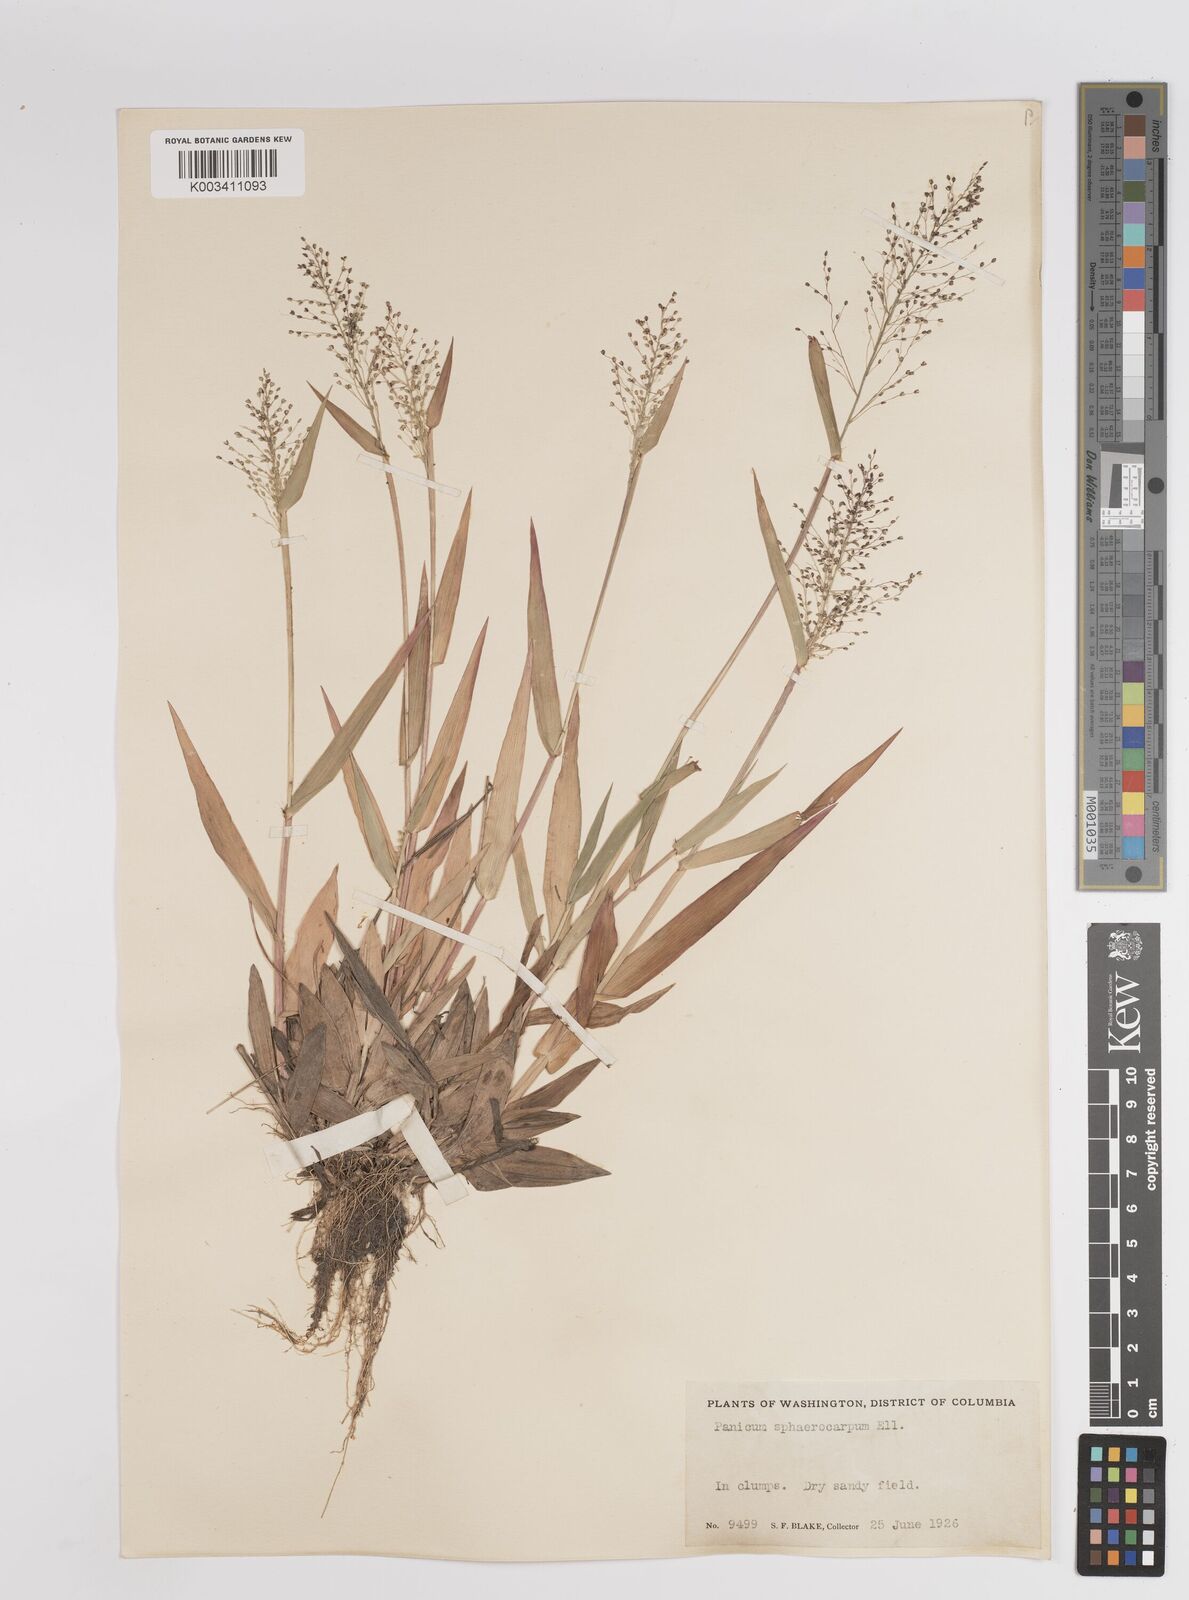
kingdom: Plantae
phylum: Tracheophyta
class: Liliopsida
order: Poales
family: Poaceae
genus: Dichanthelium
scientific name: Dichanthelium sphaerocarpon
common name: Round-fruited panicgrass
